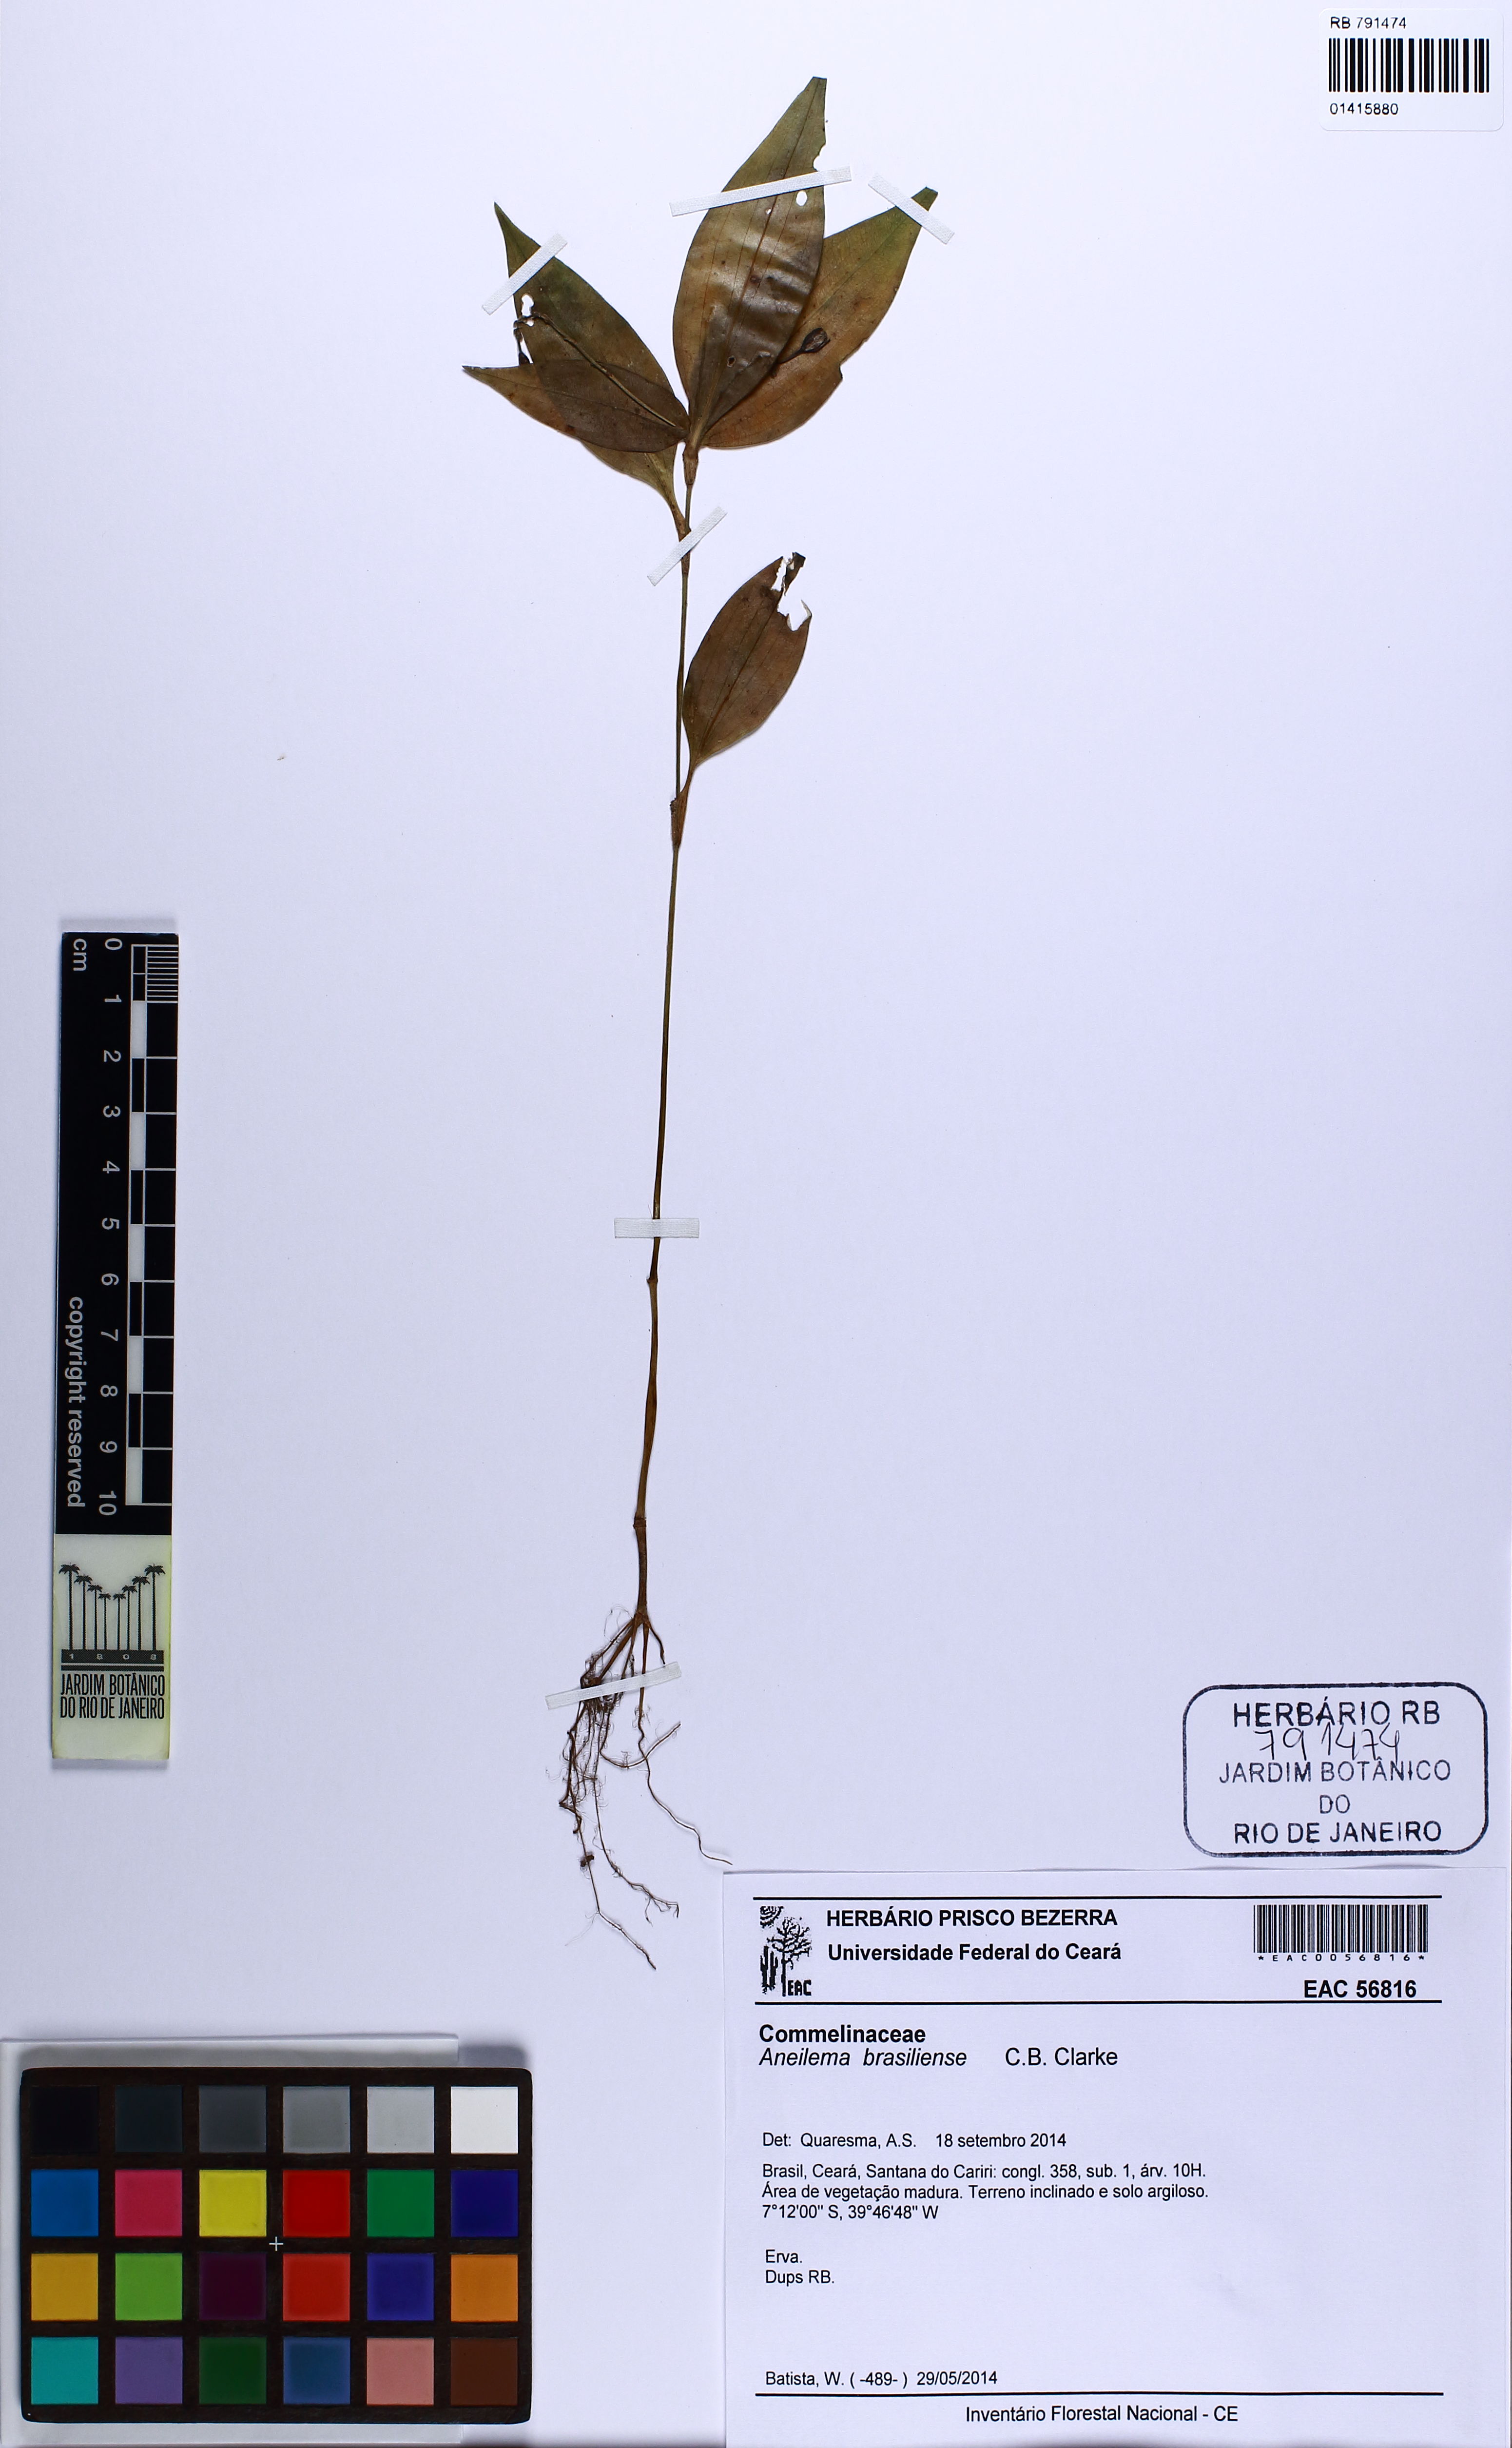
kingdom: Plantae
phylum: Tracheophyta
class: Liliopsida
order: Commelinales
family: Commelinaceae
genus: Aneilema
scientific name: Aneilema brasiliense
